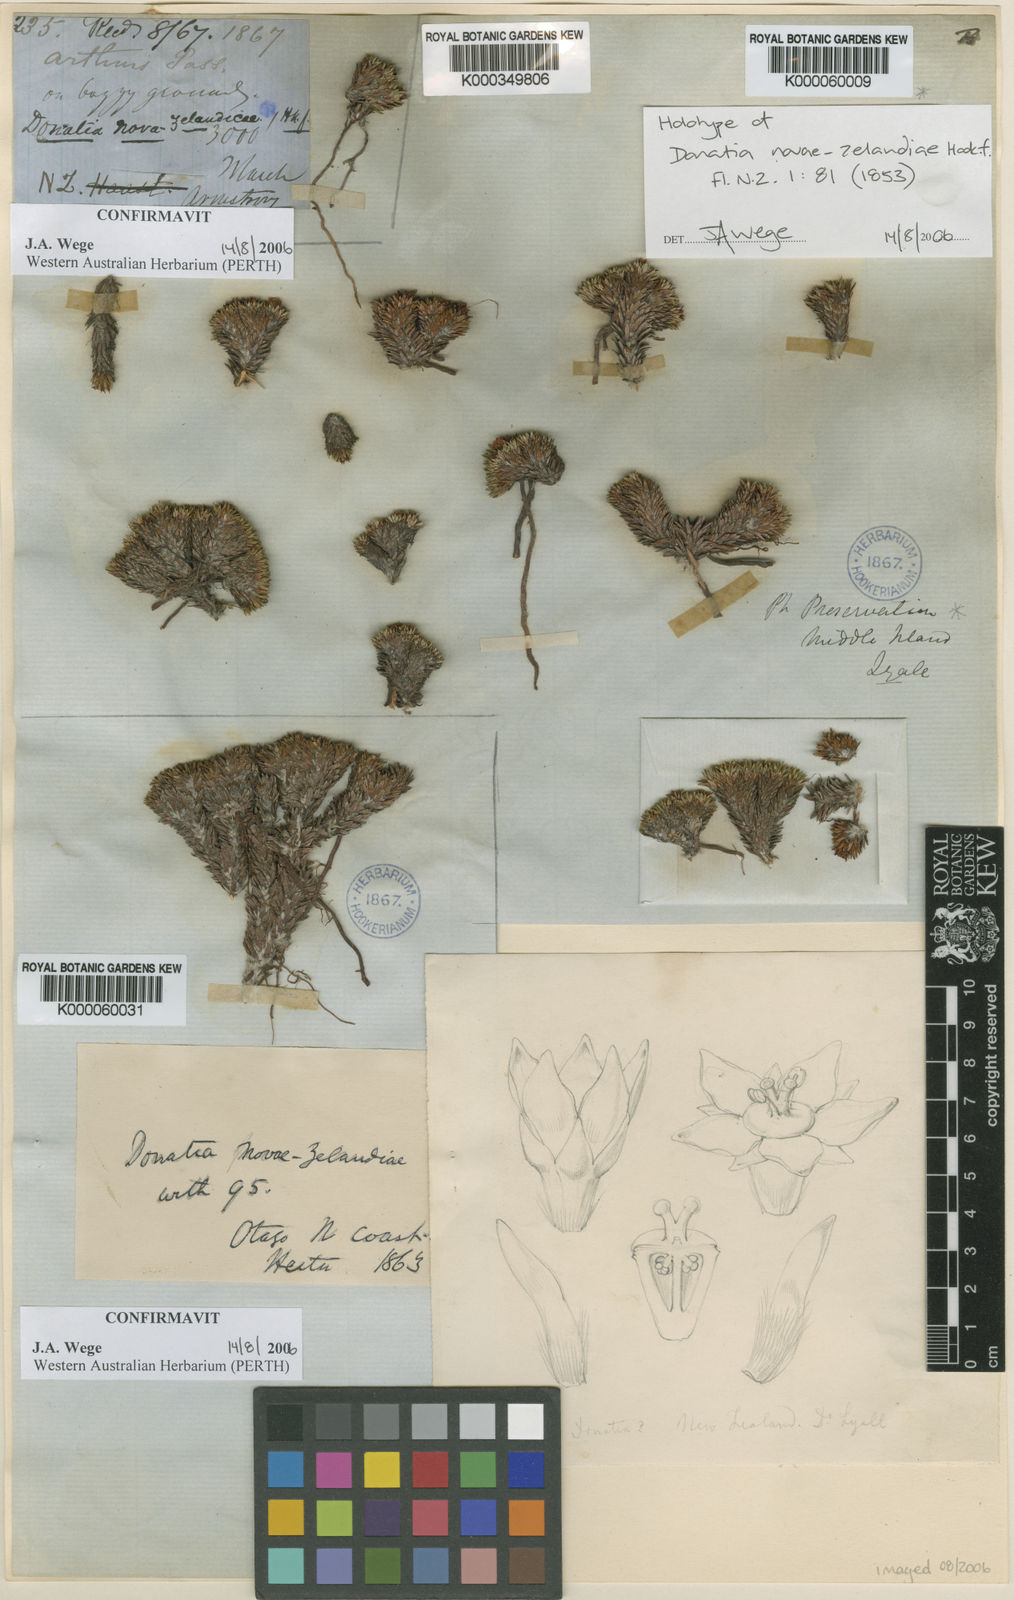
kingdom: Plantae
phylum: Tracheophyta
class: Magnoliopsida
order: Asterales
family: Stylidiaceae
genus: Donatia
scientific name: Donatia novae-zelandiae
